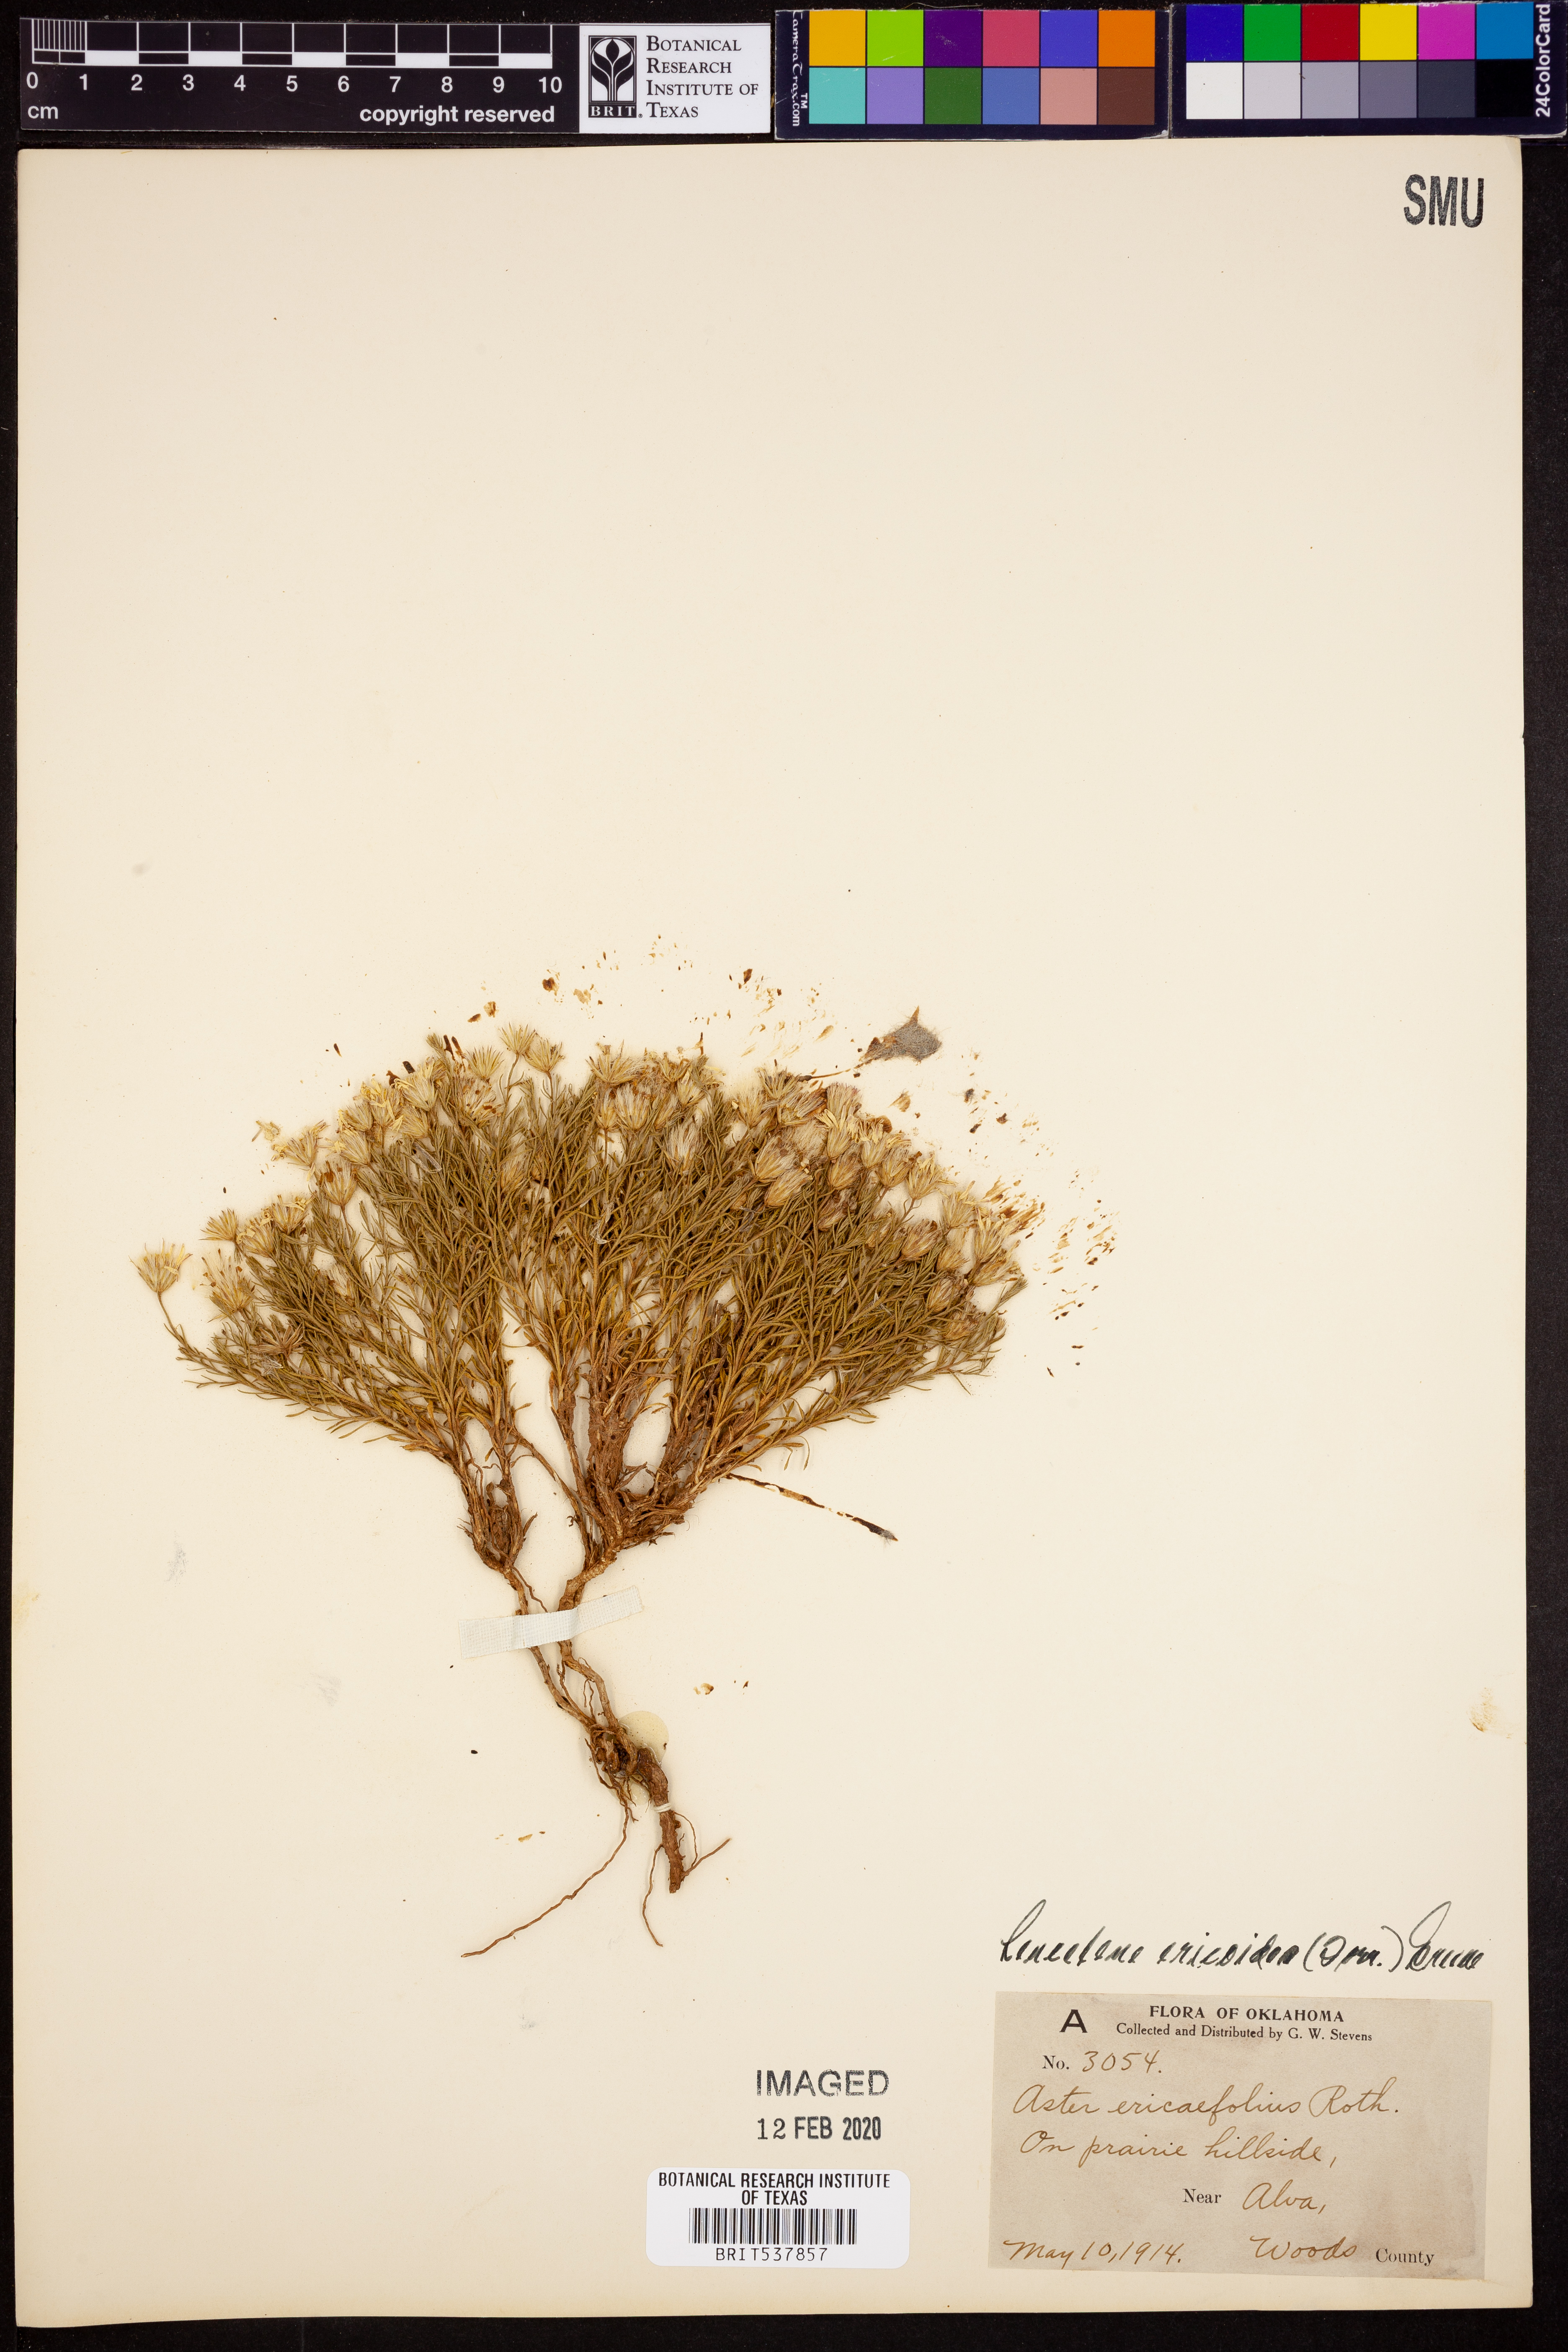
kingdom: Plantae
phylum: Tracheophyta
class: Magnoliopsida
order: Asterales
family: Asteraceae
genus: Chaetopappa
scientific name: Chaetopappa ericoides
